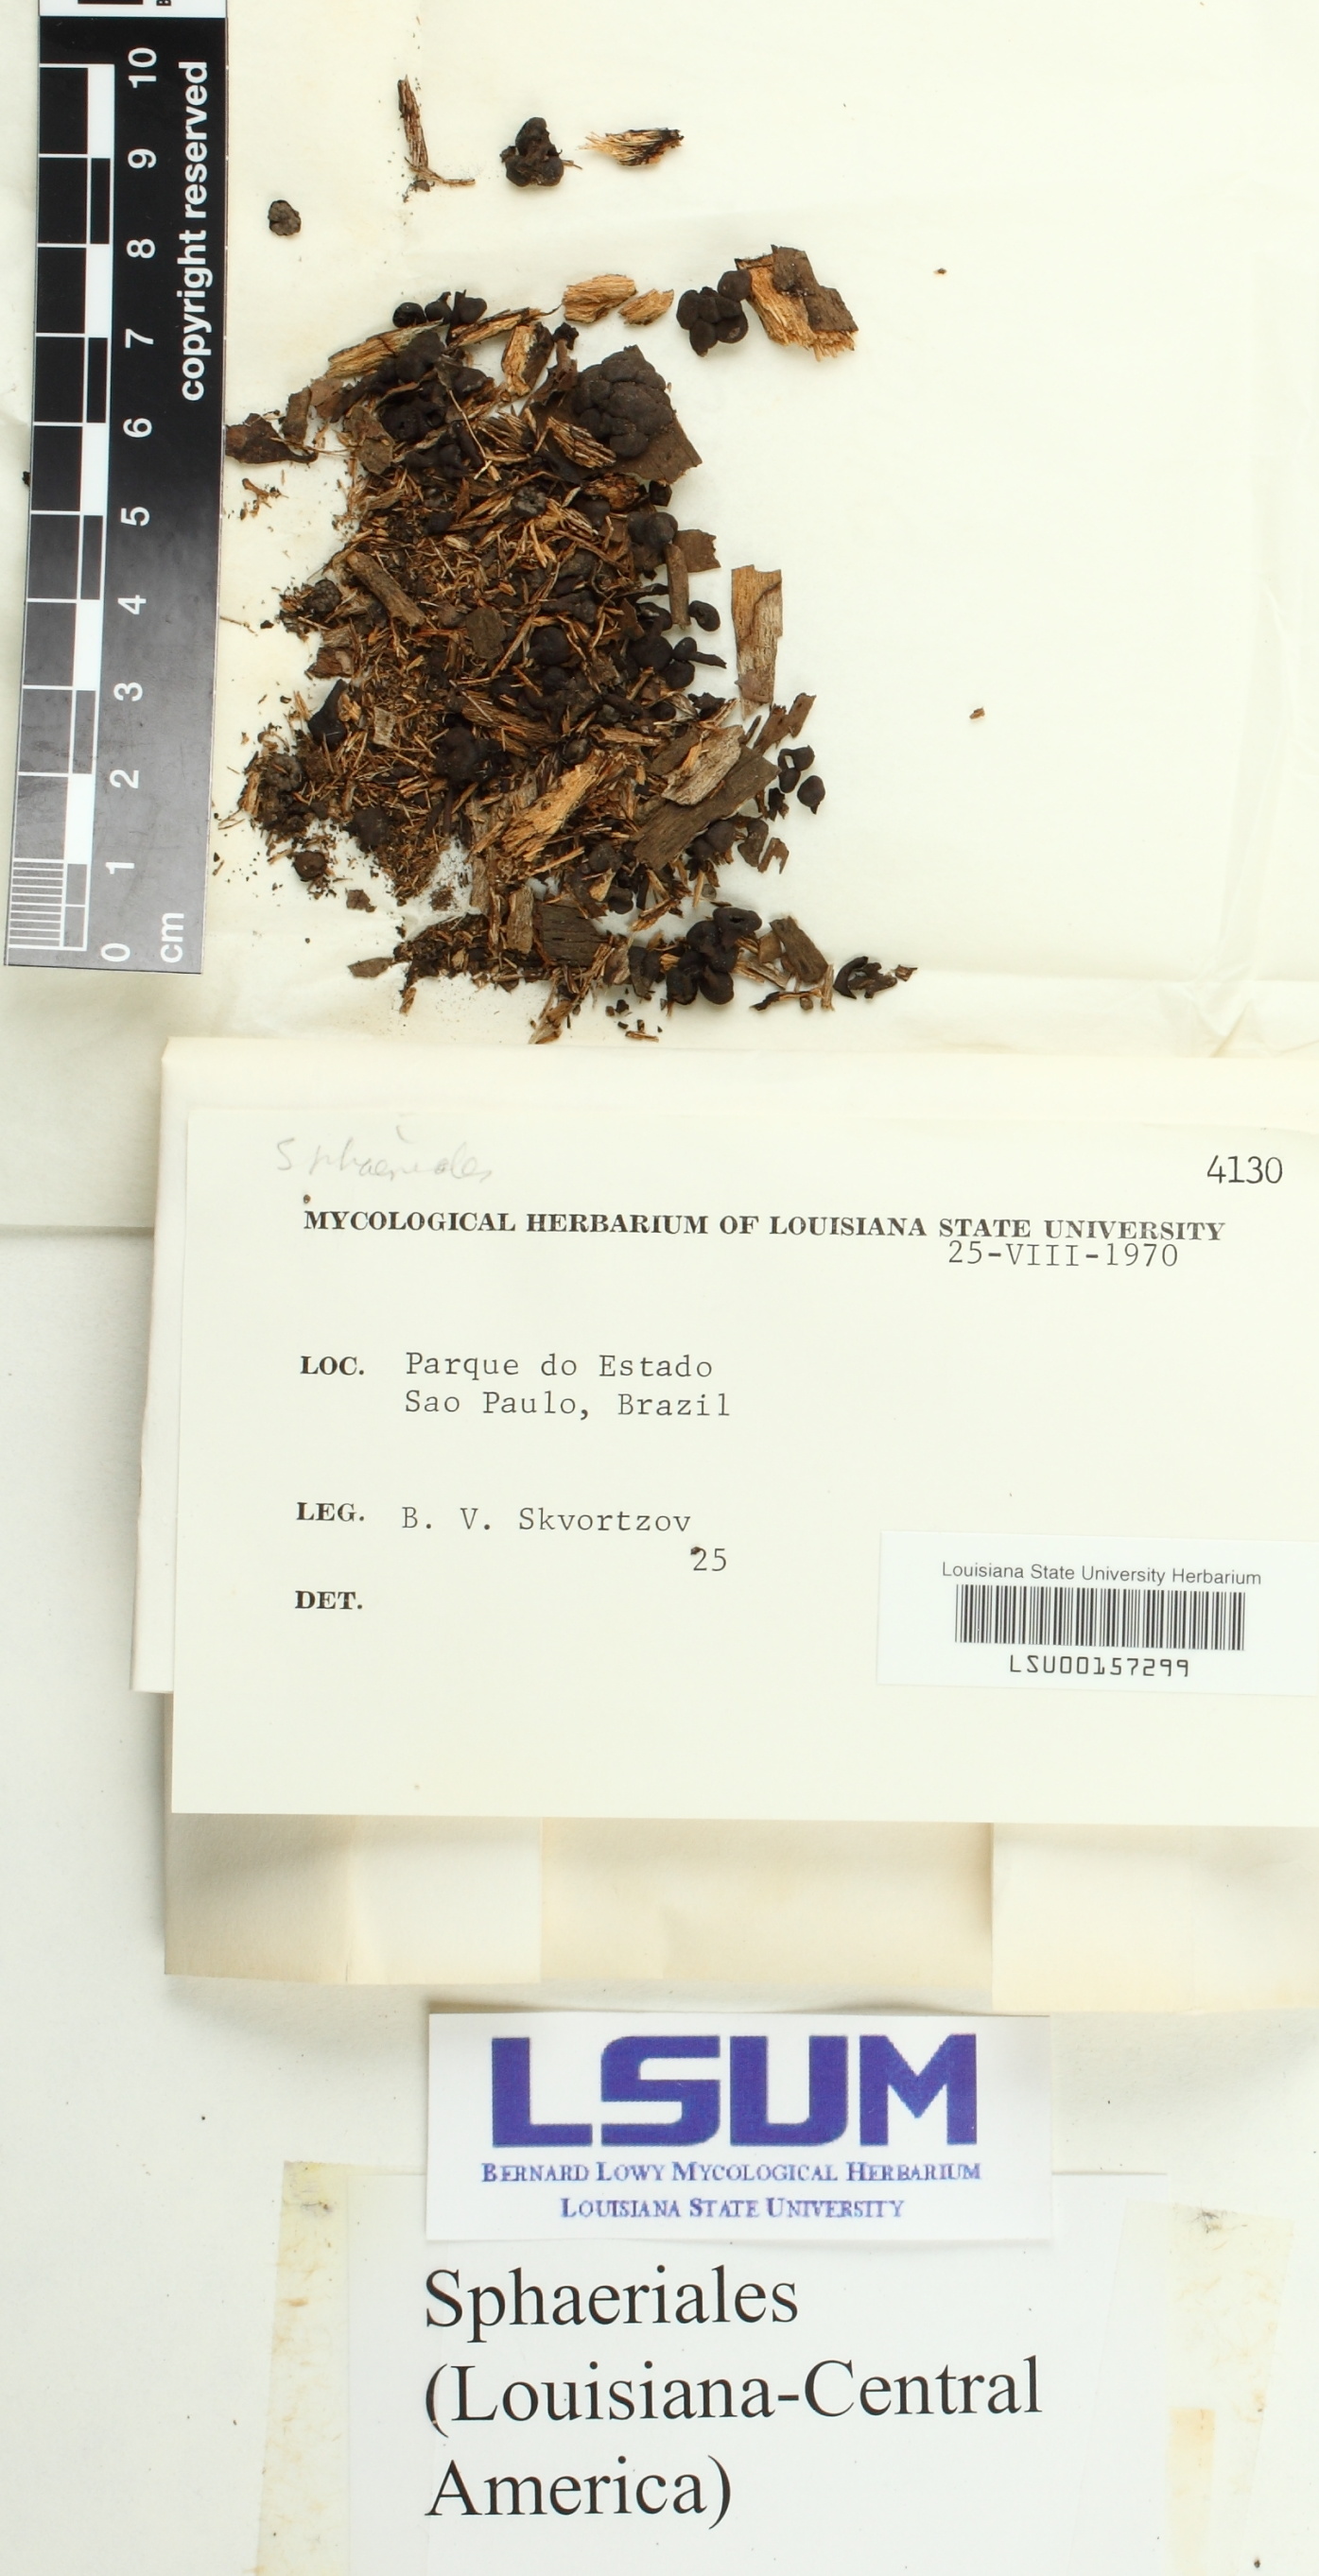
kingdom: Fungi
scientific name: Fungi
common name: Fungi
